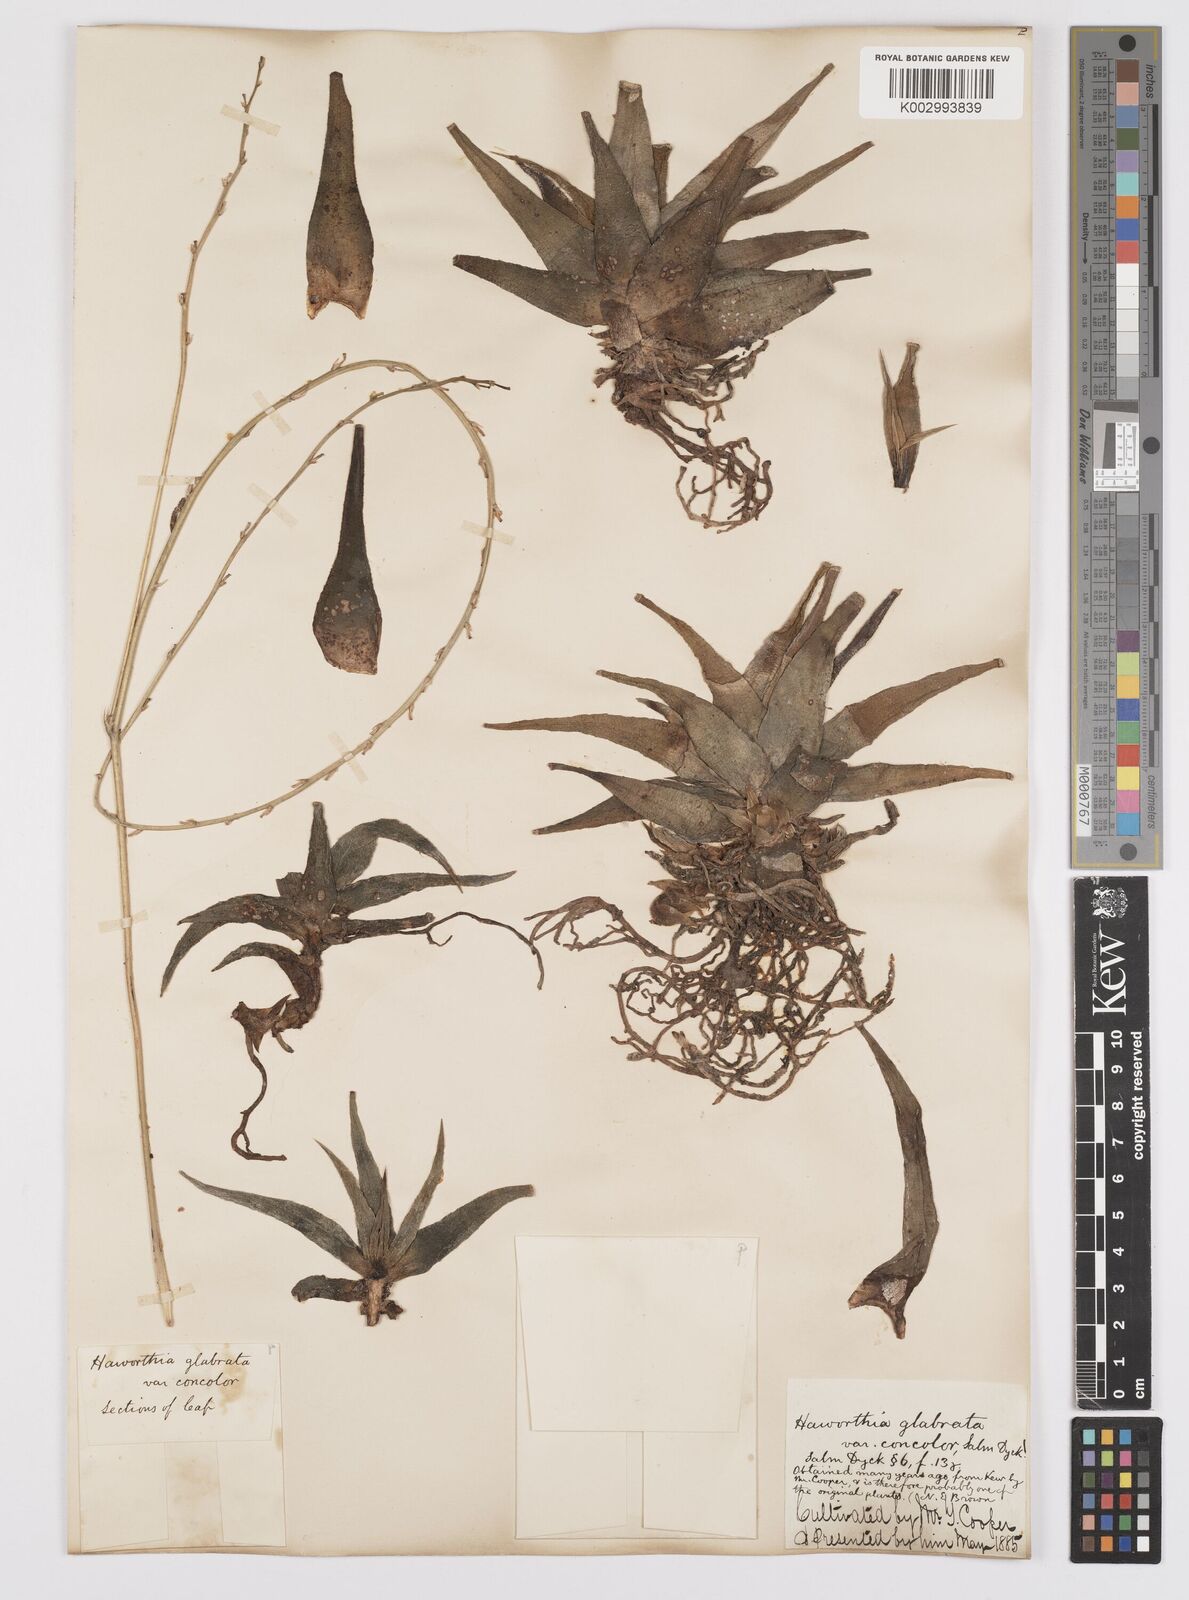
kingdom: Plantae
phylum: Tracheophyta
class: Liliopsida
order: Asparagales
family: Asphodelaceae
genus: Haworthiopsis
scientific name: Haworthiopsis attenuata
